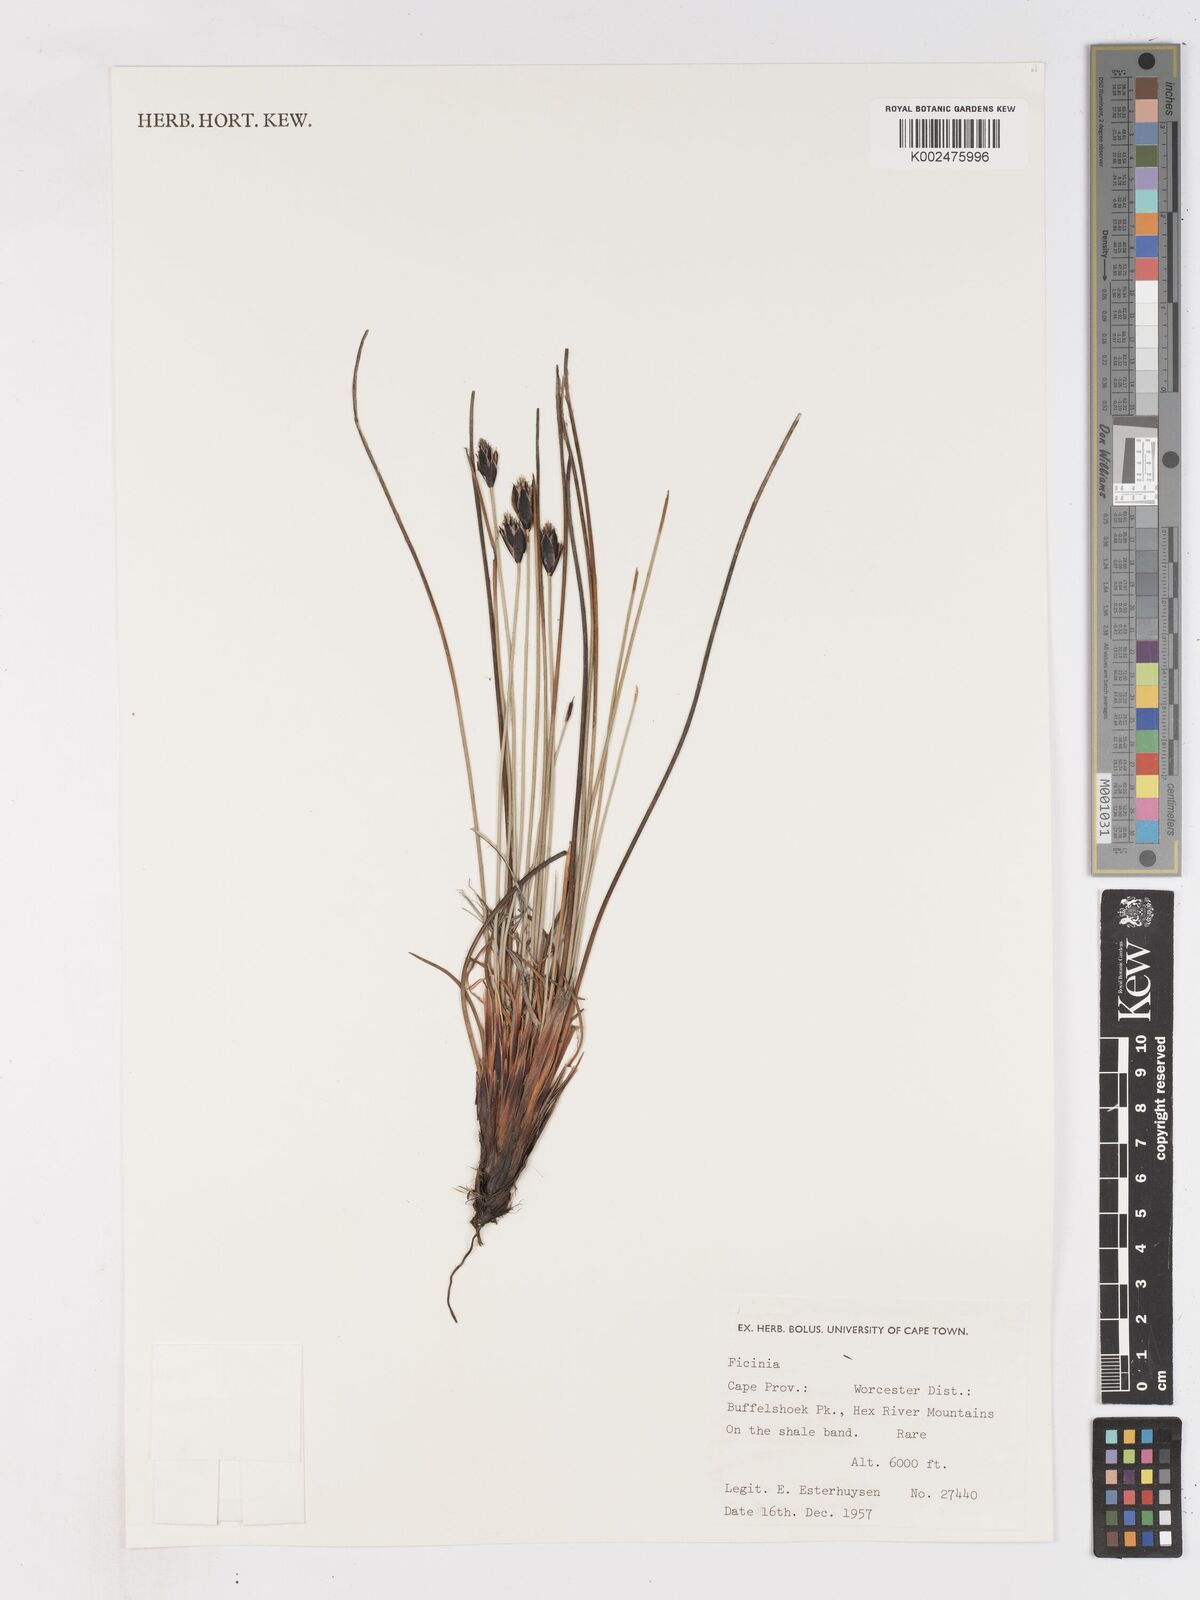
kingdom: Plantae
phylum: Tracheophyta
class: Liliopsida
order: Poales
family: Cyperaceae
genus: Ficinia
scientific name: Ficinia gydomontana
